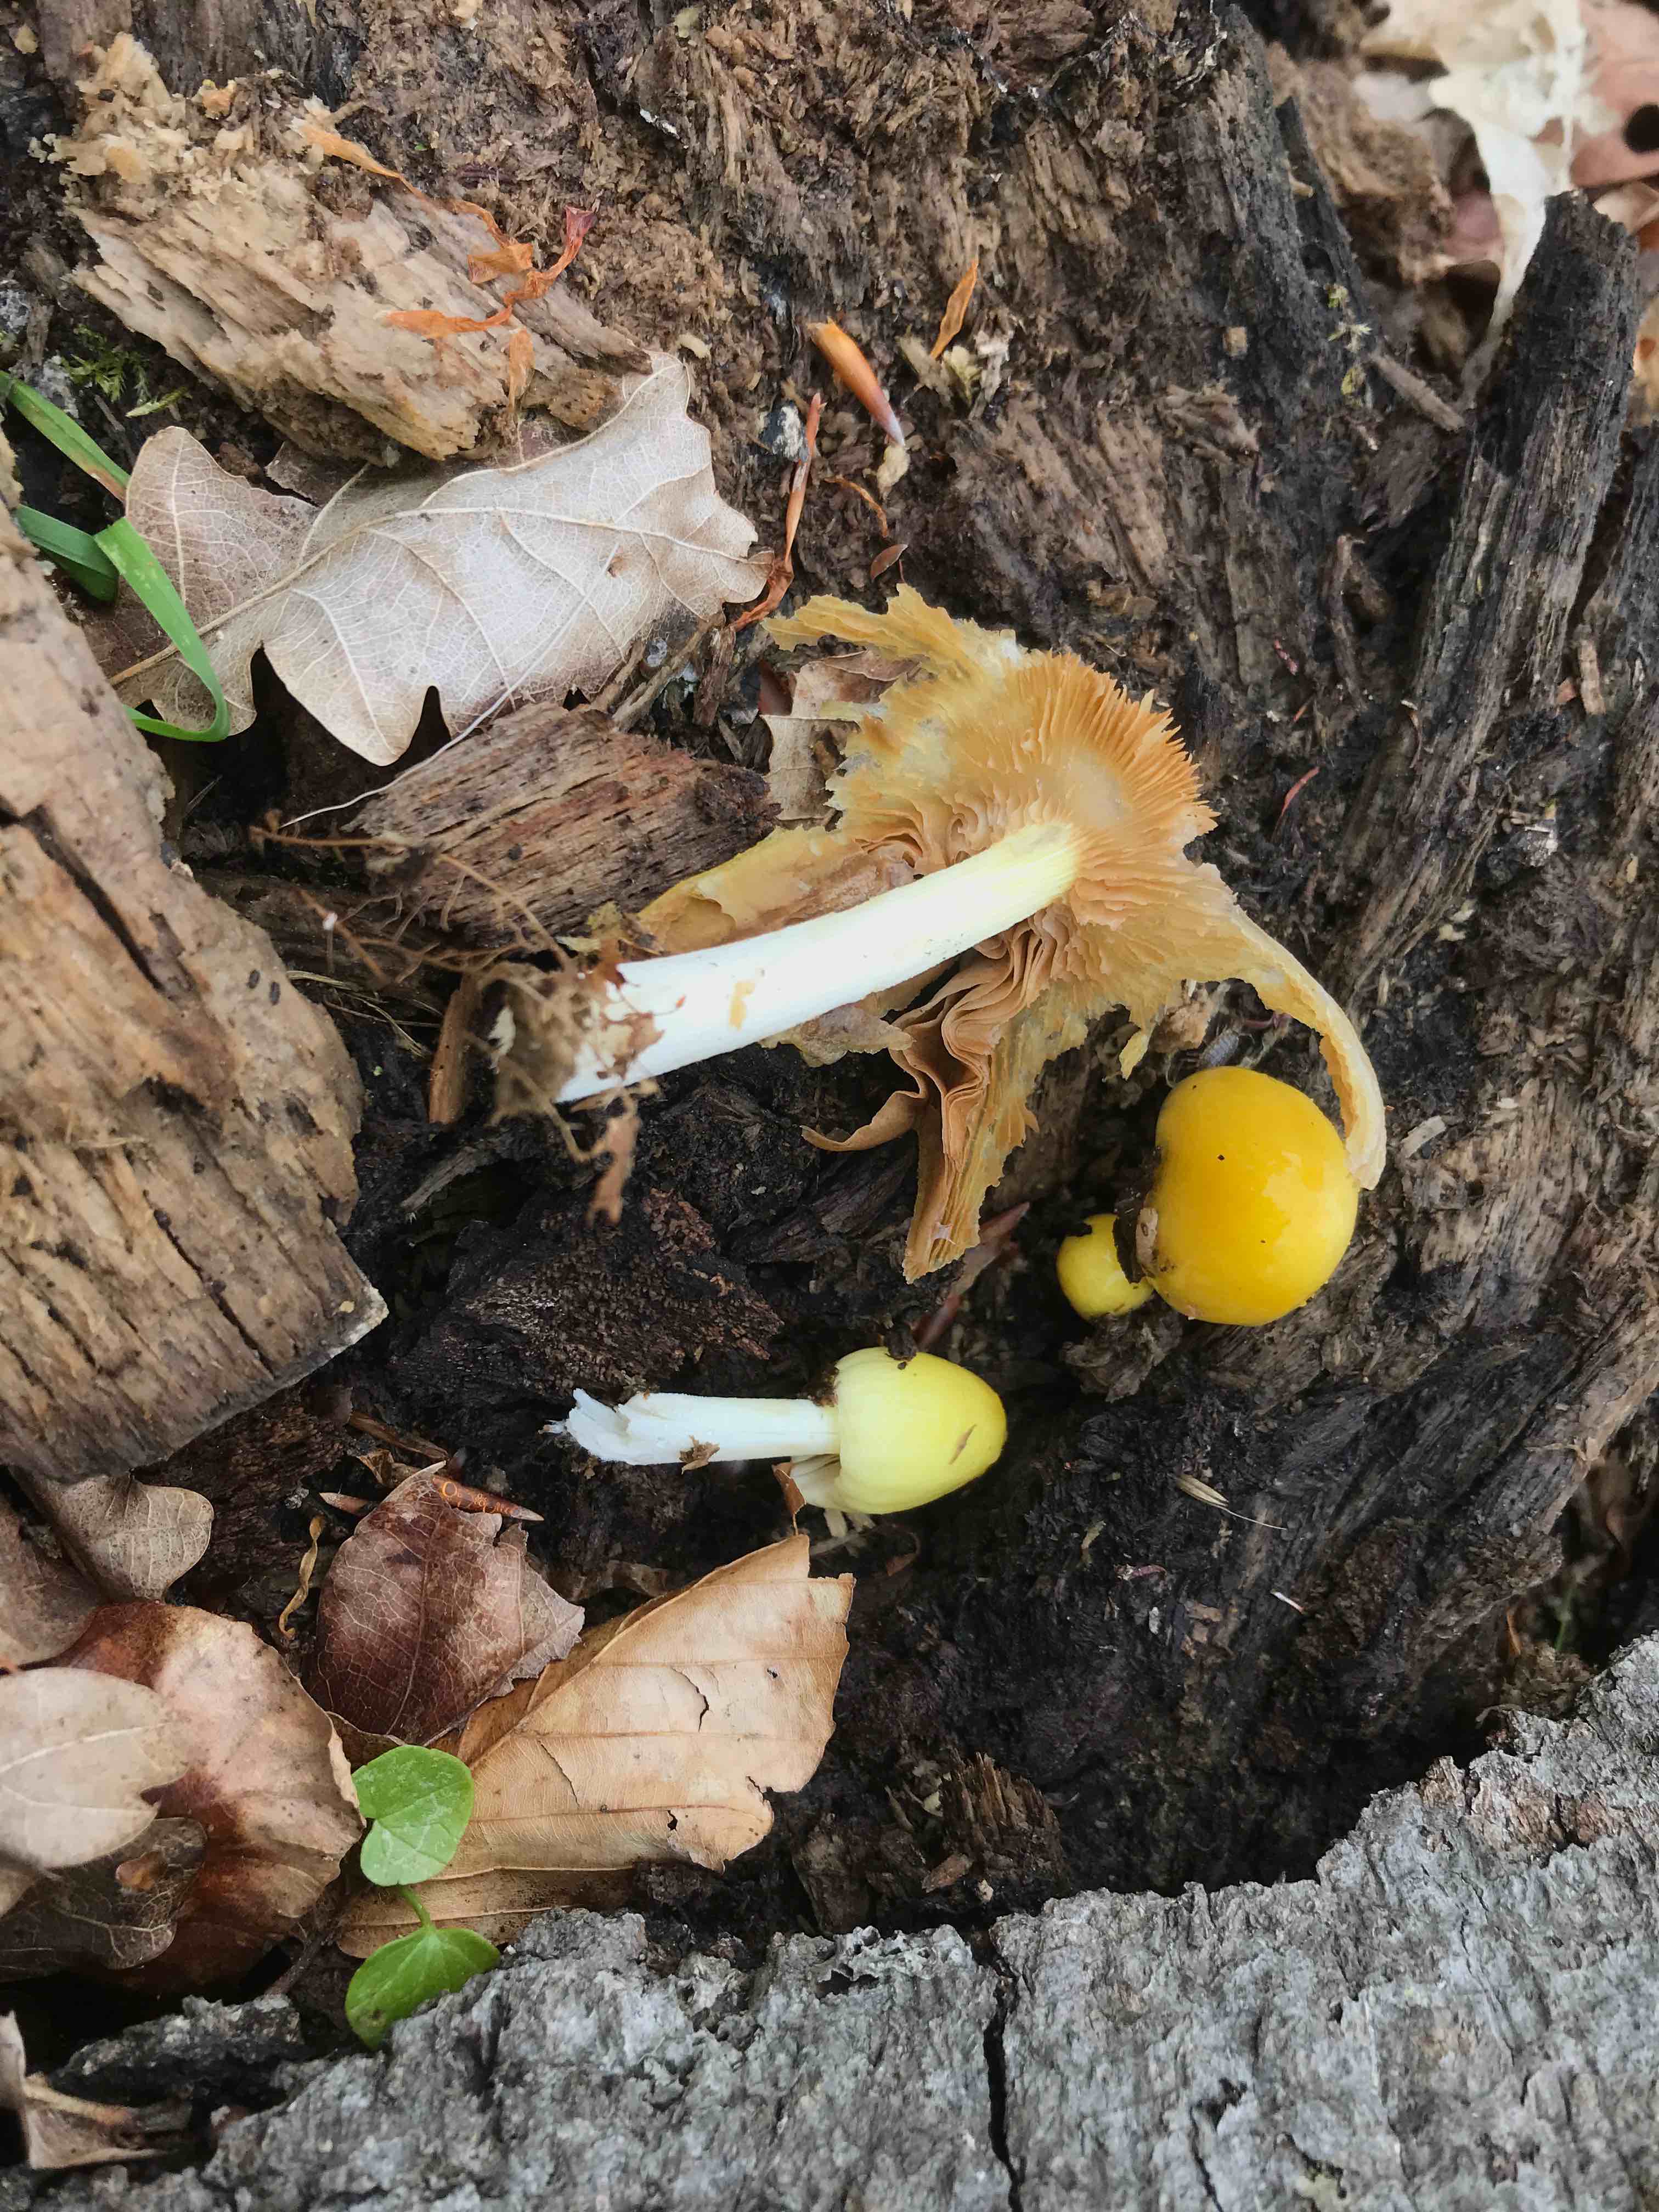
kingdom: Fungi
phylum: Basidiomycota
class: Agaricomycetes
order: Agaricales
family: Bolbitiaceae
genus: Bolbitius
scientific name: Bolbitius titubans
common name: almindelig gulhat
